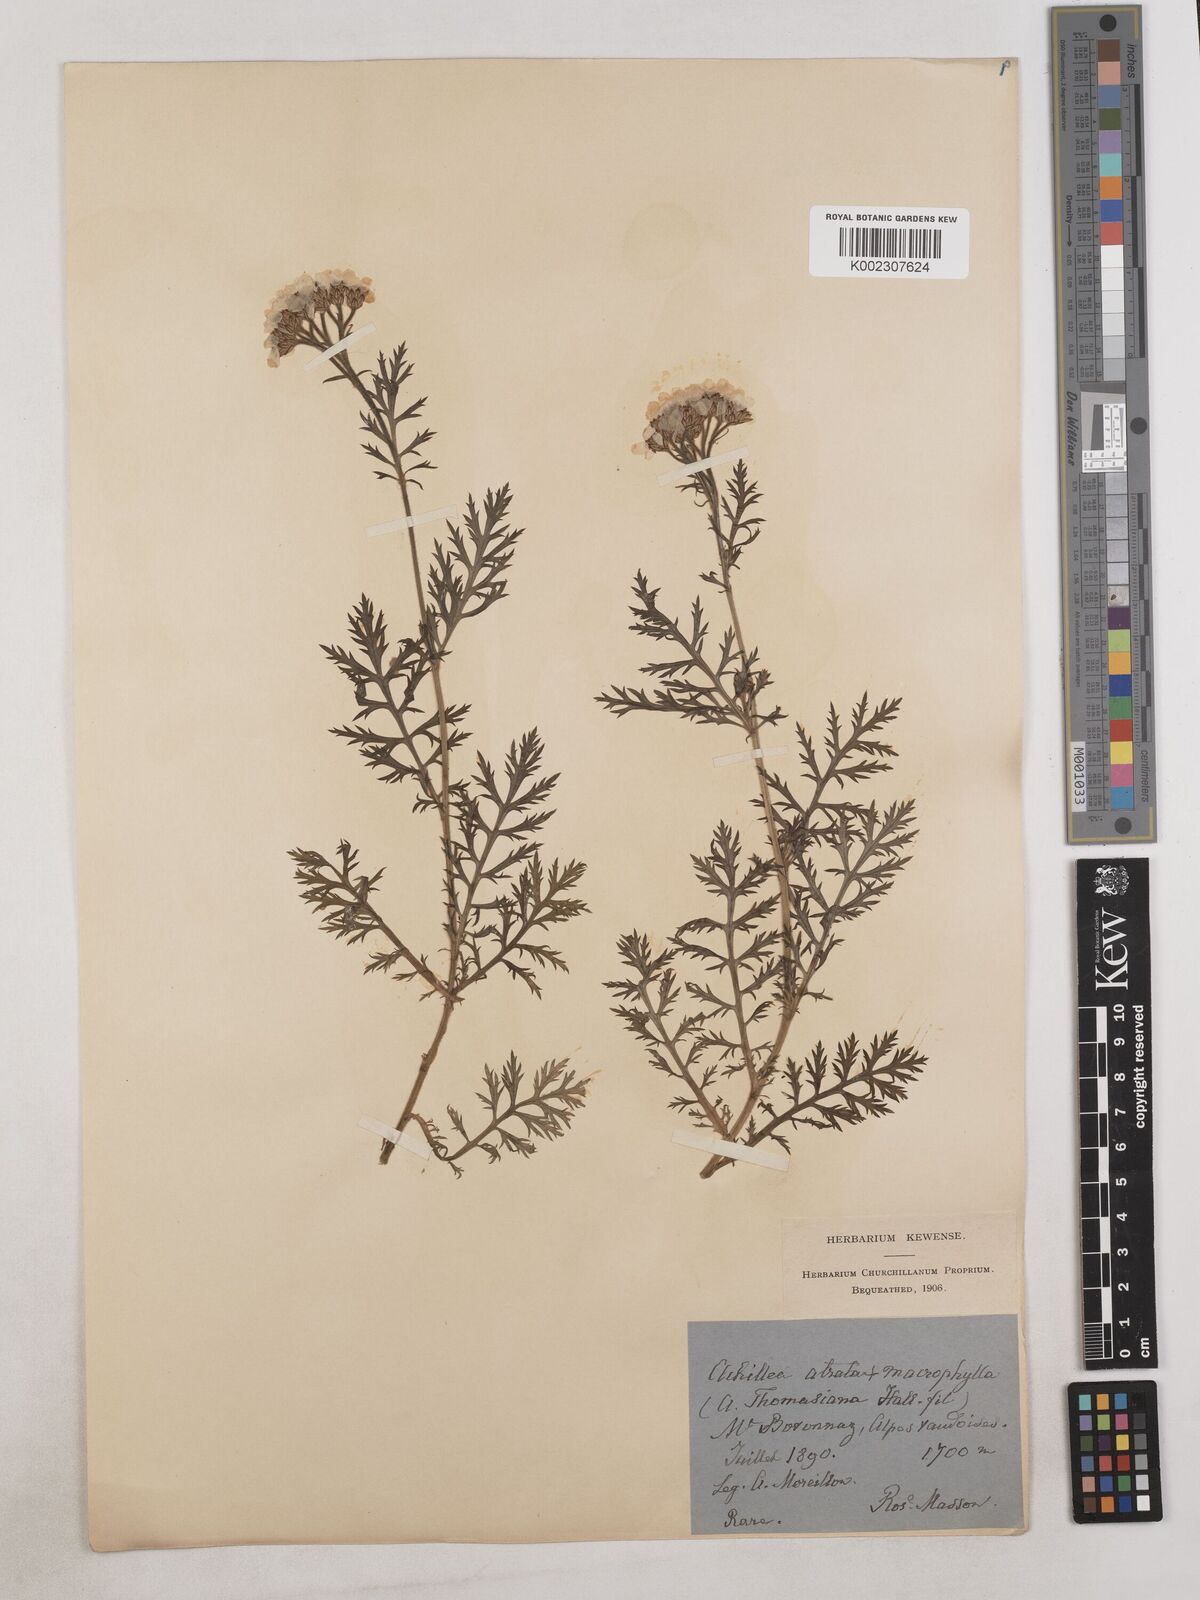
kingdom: Plantae
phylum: Tracheophyta
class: Magnoliopsida
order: Asterales
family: Asteraceae
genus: Achillea
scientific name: Achillea thomasiana ex
